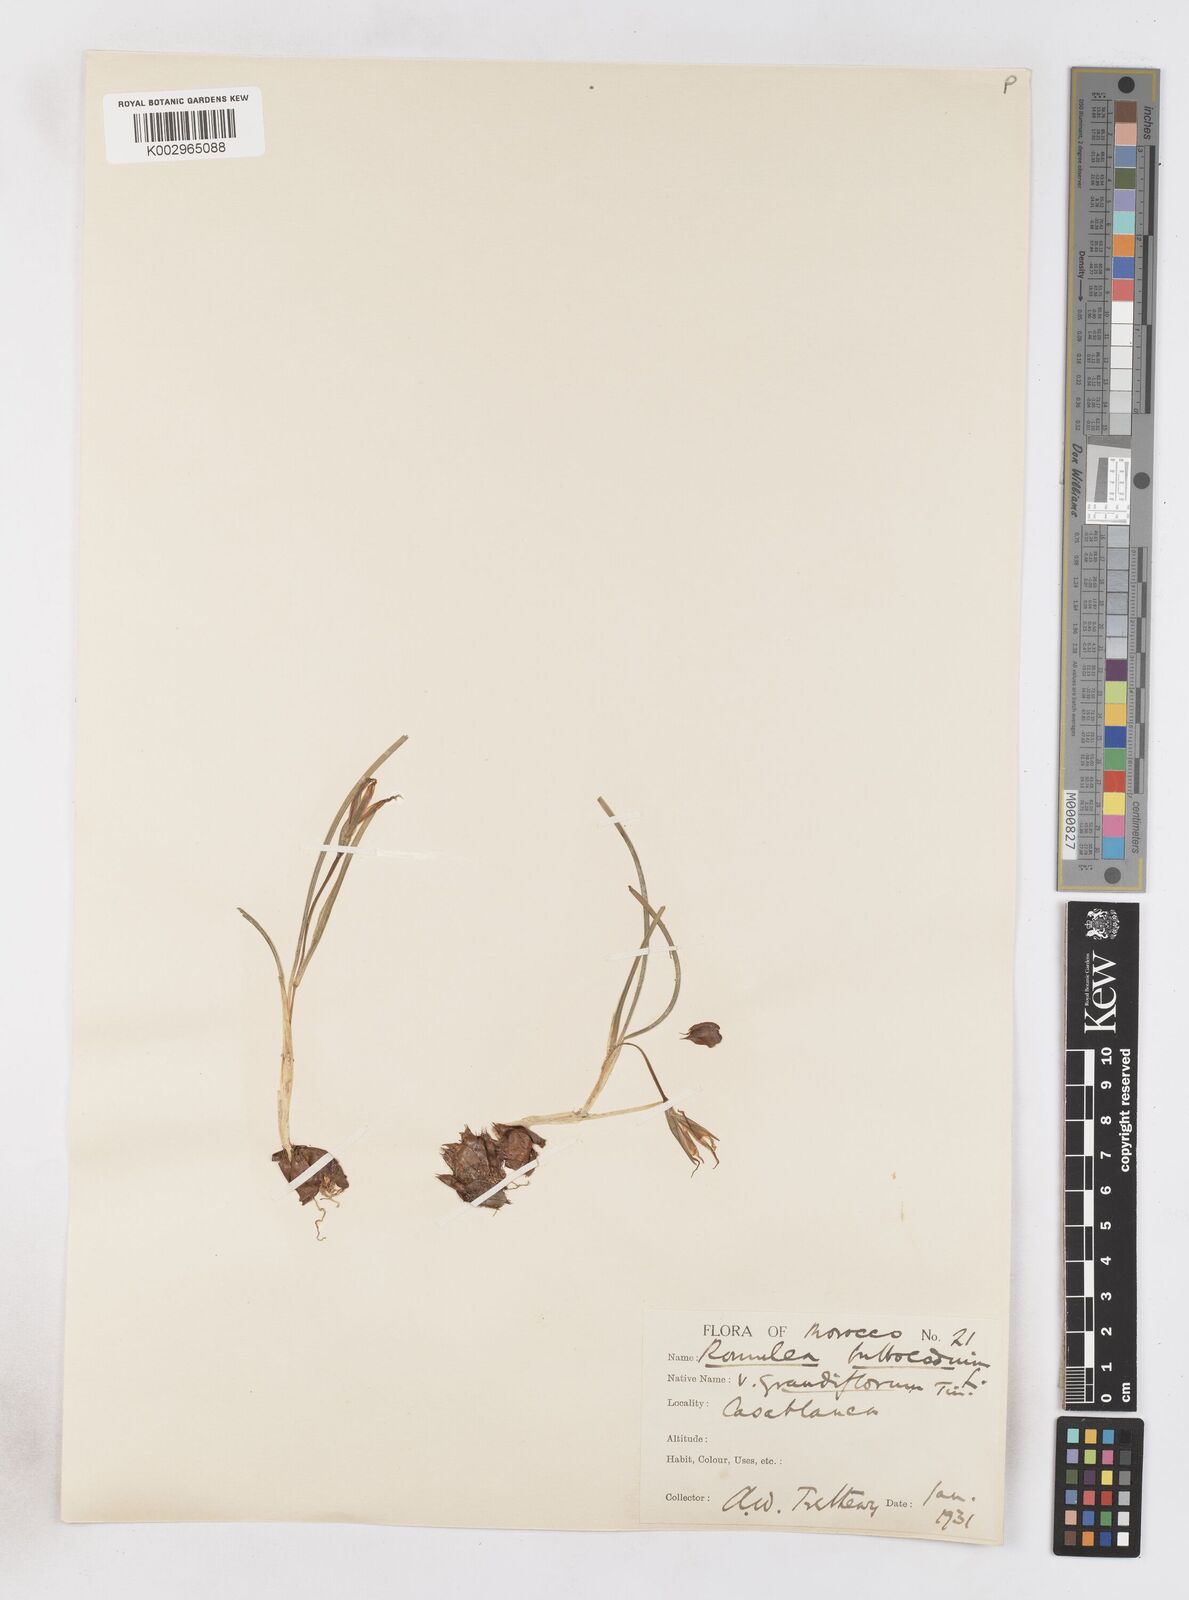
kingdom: Plantae
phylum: Tracheophyta
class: Liliopsida
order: Asparagales
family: Iridaceae
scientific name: Iridaceae
